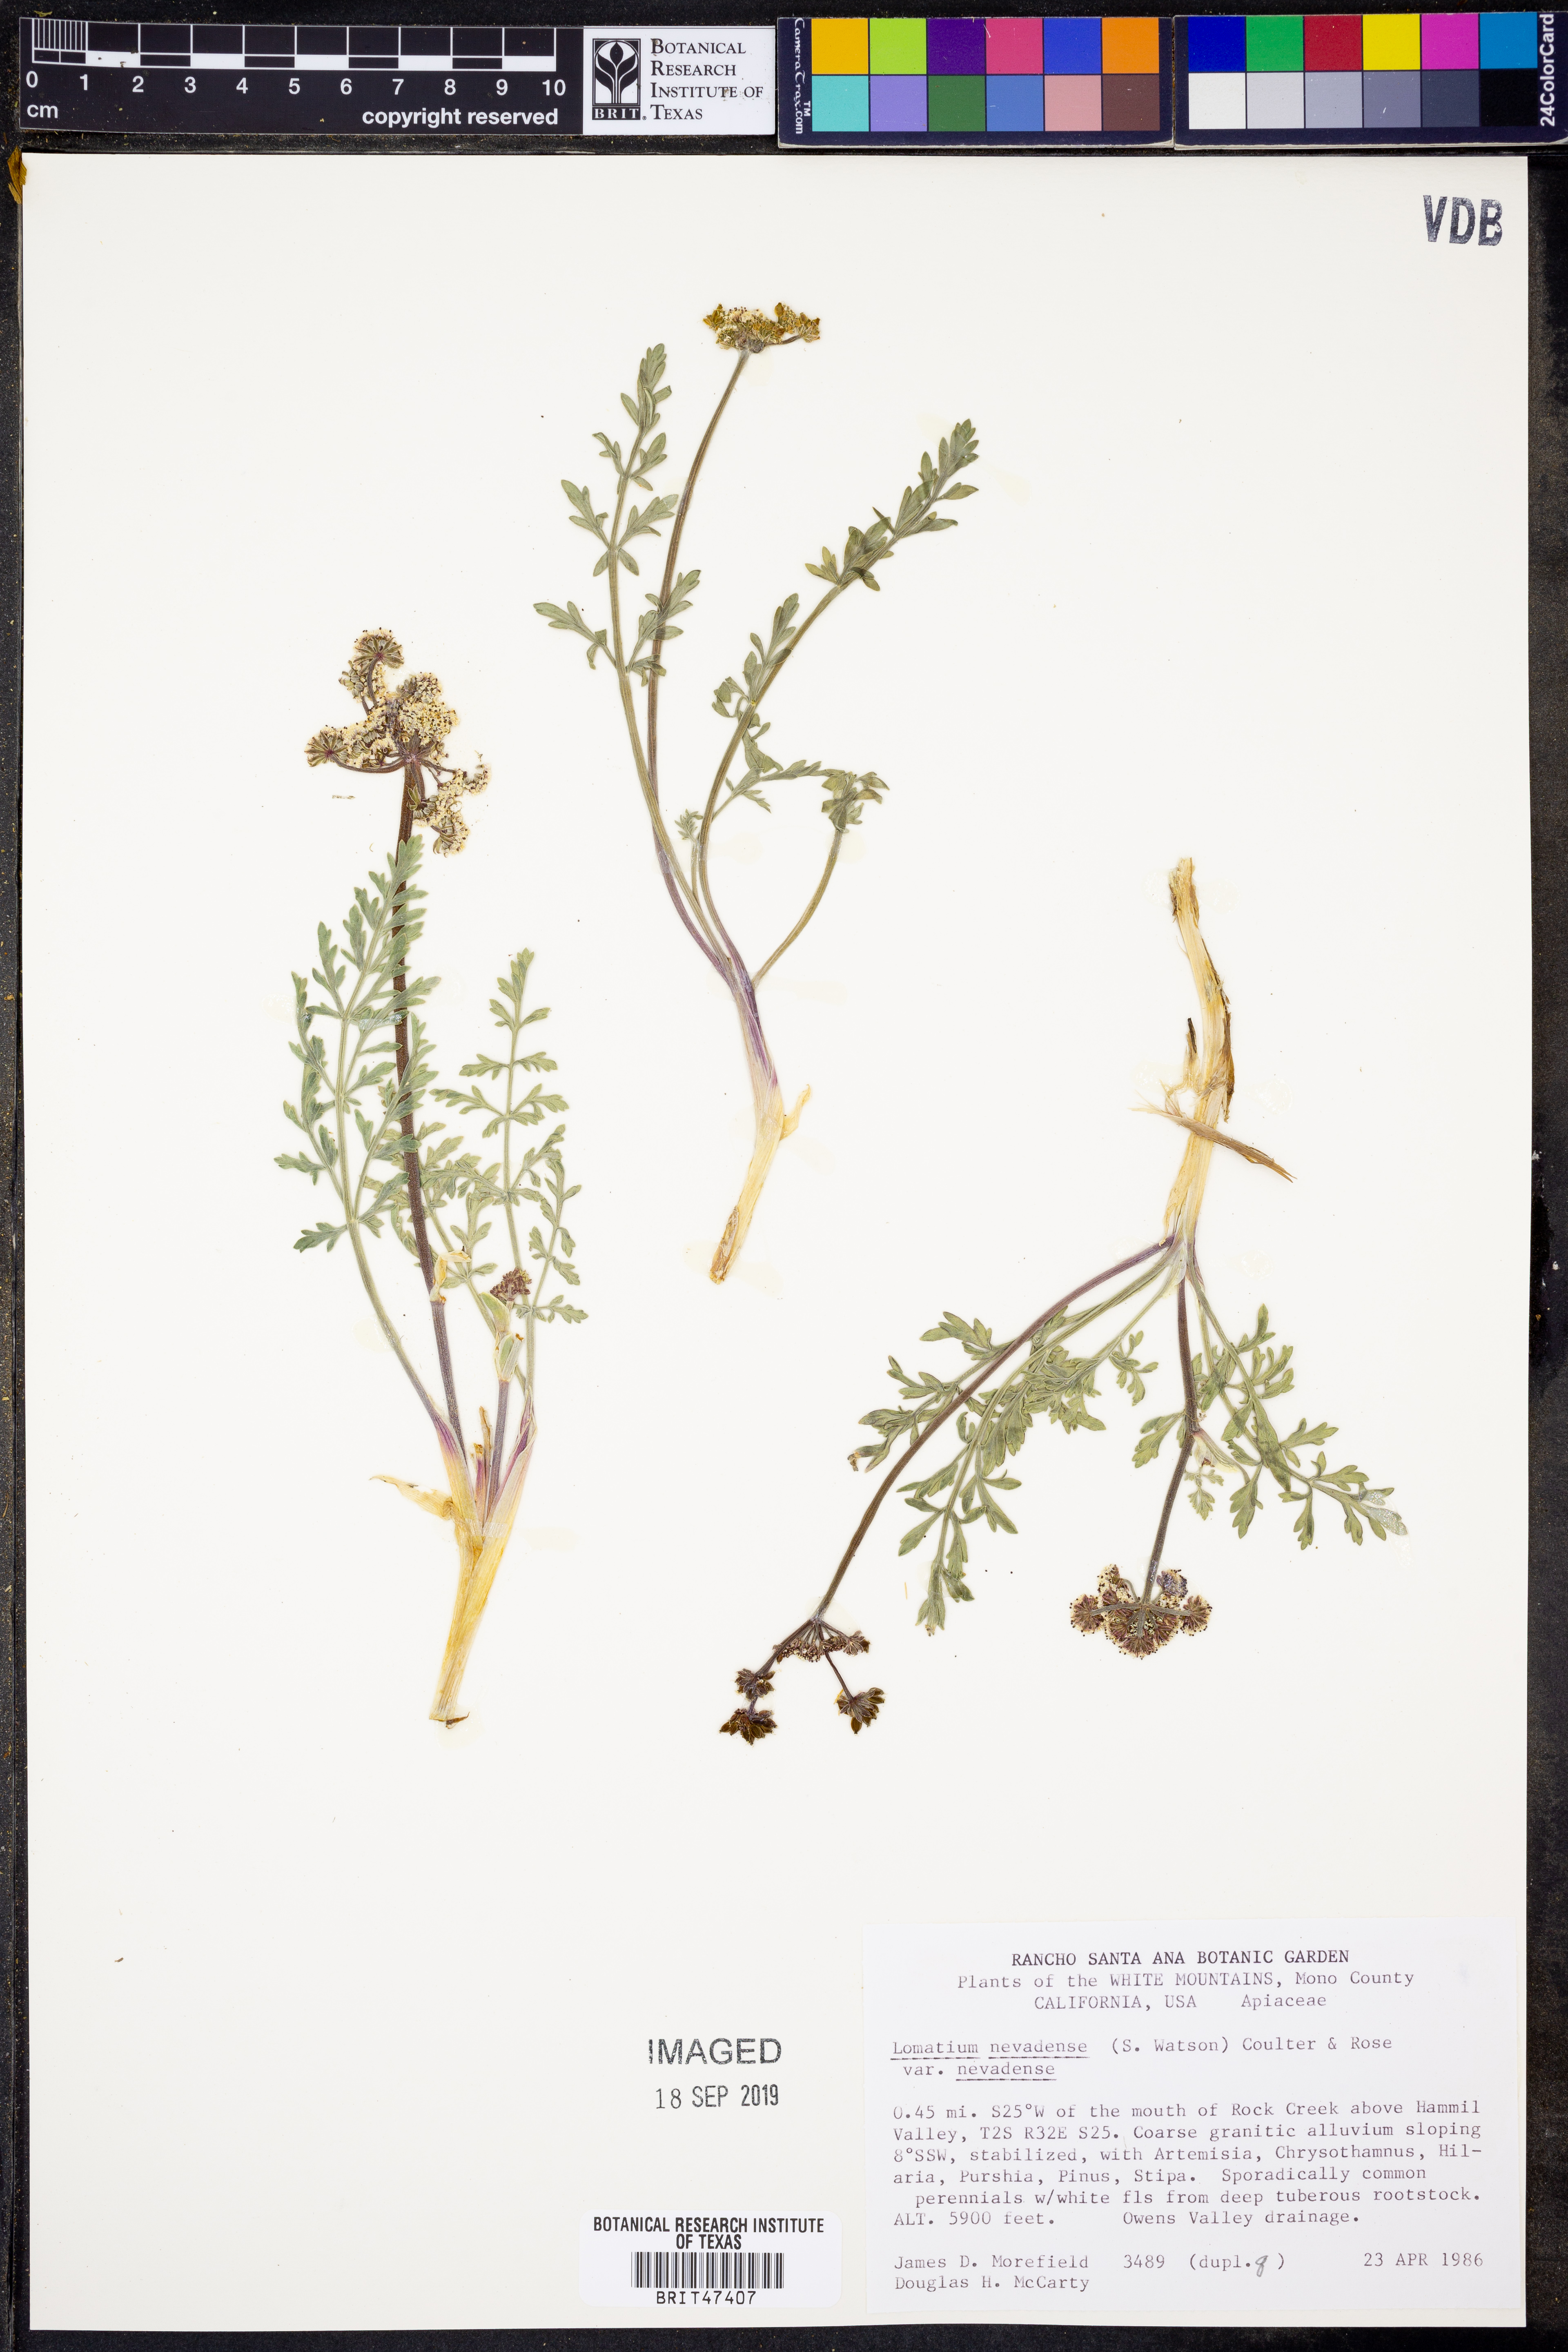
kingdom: Plantae
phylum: Tracheophyta
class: Magnoliopsida
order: Apiales
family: Apiaceae
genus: Lomatium
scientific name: Lomatium nevadense
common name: Nevada lomatium
